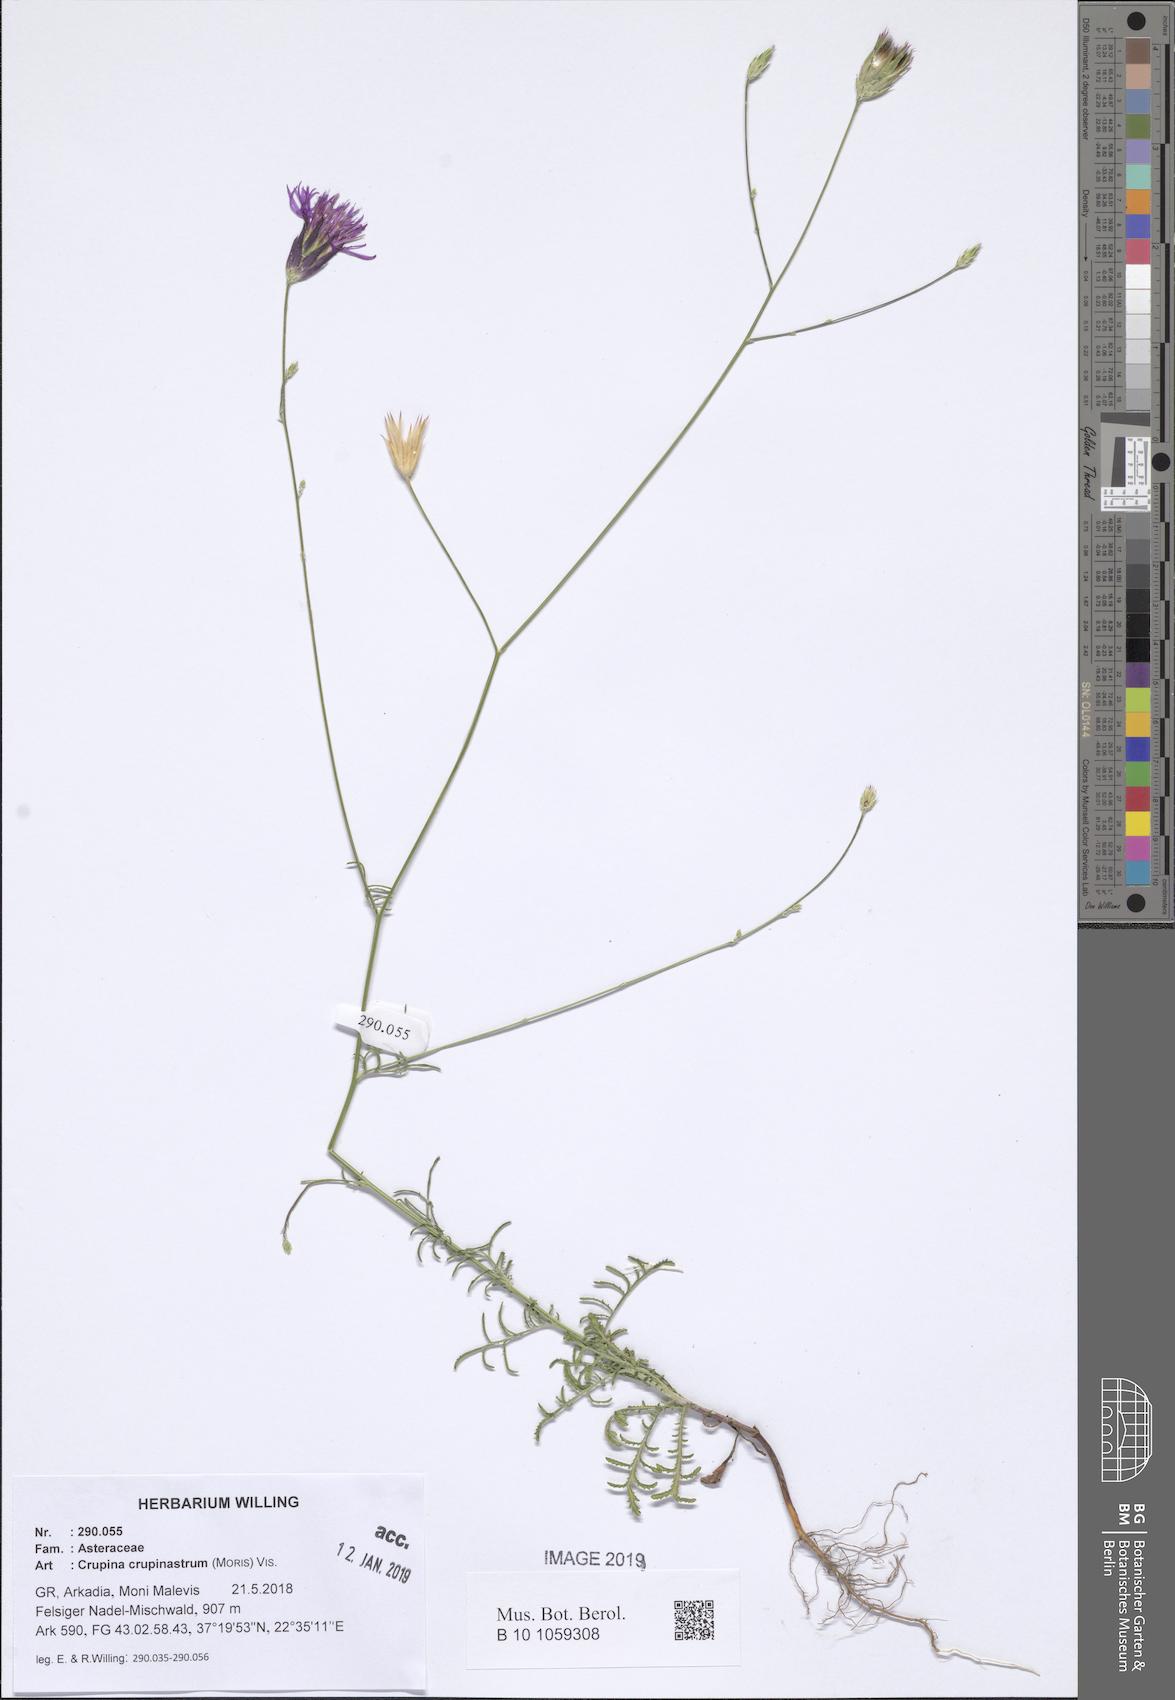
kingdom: Plantae
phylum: Tracheophyta
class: Magnoliopsida
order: Asterales
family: Asteraceae
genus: Crupina
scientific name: Crupina crupinastrum
